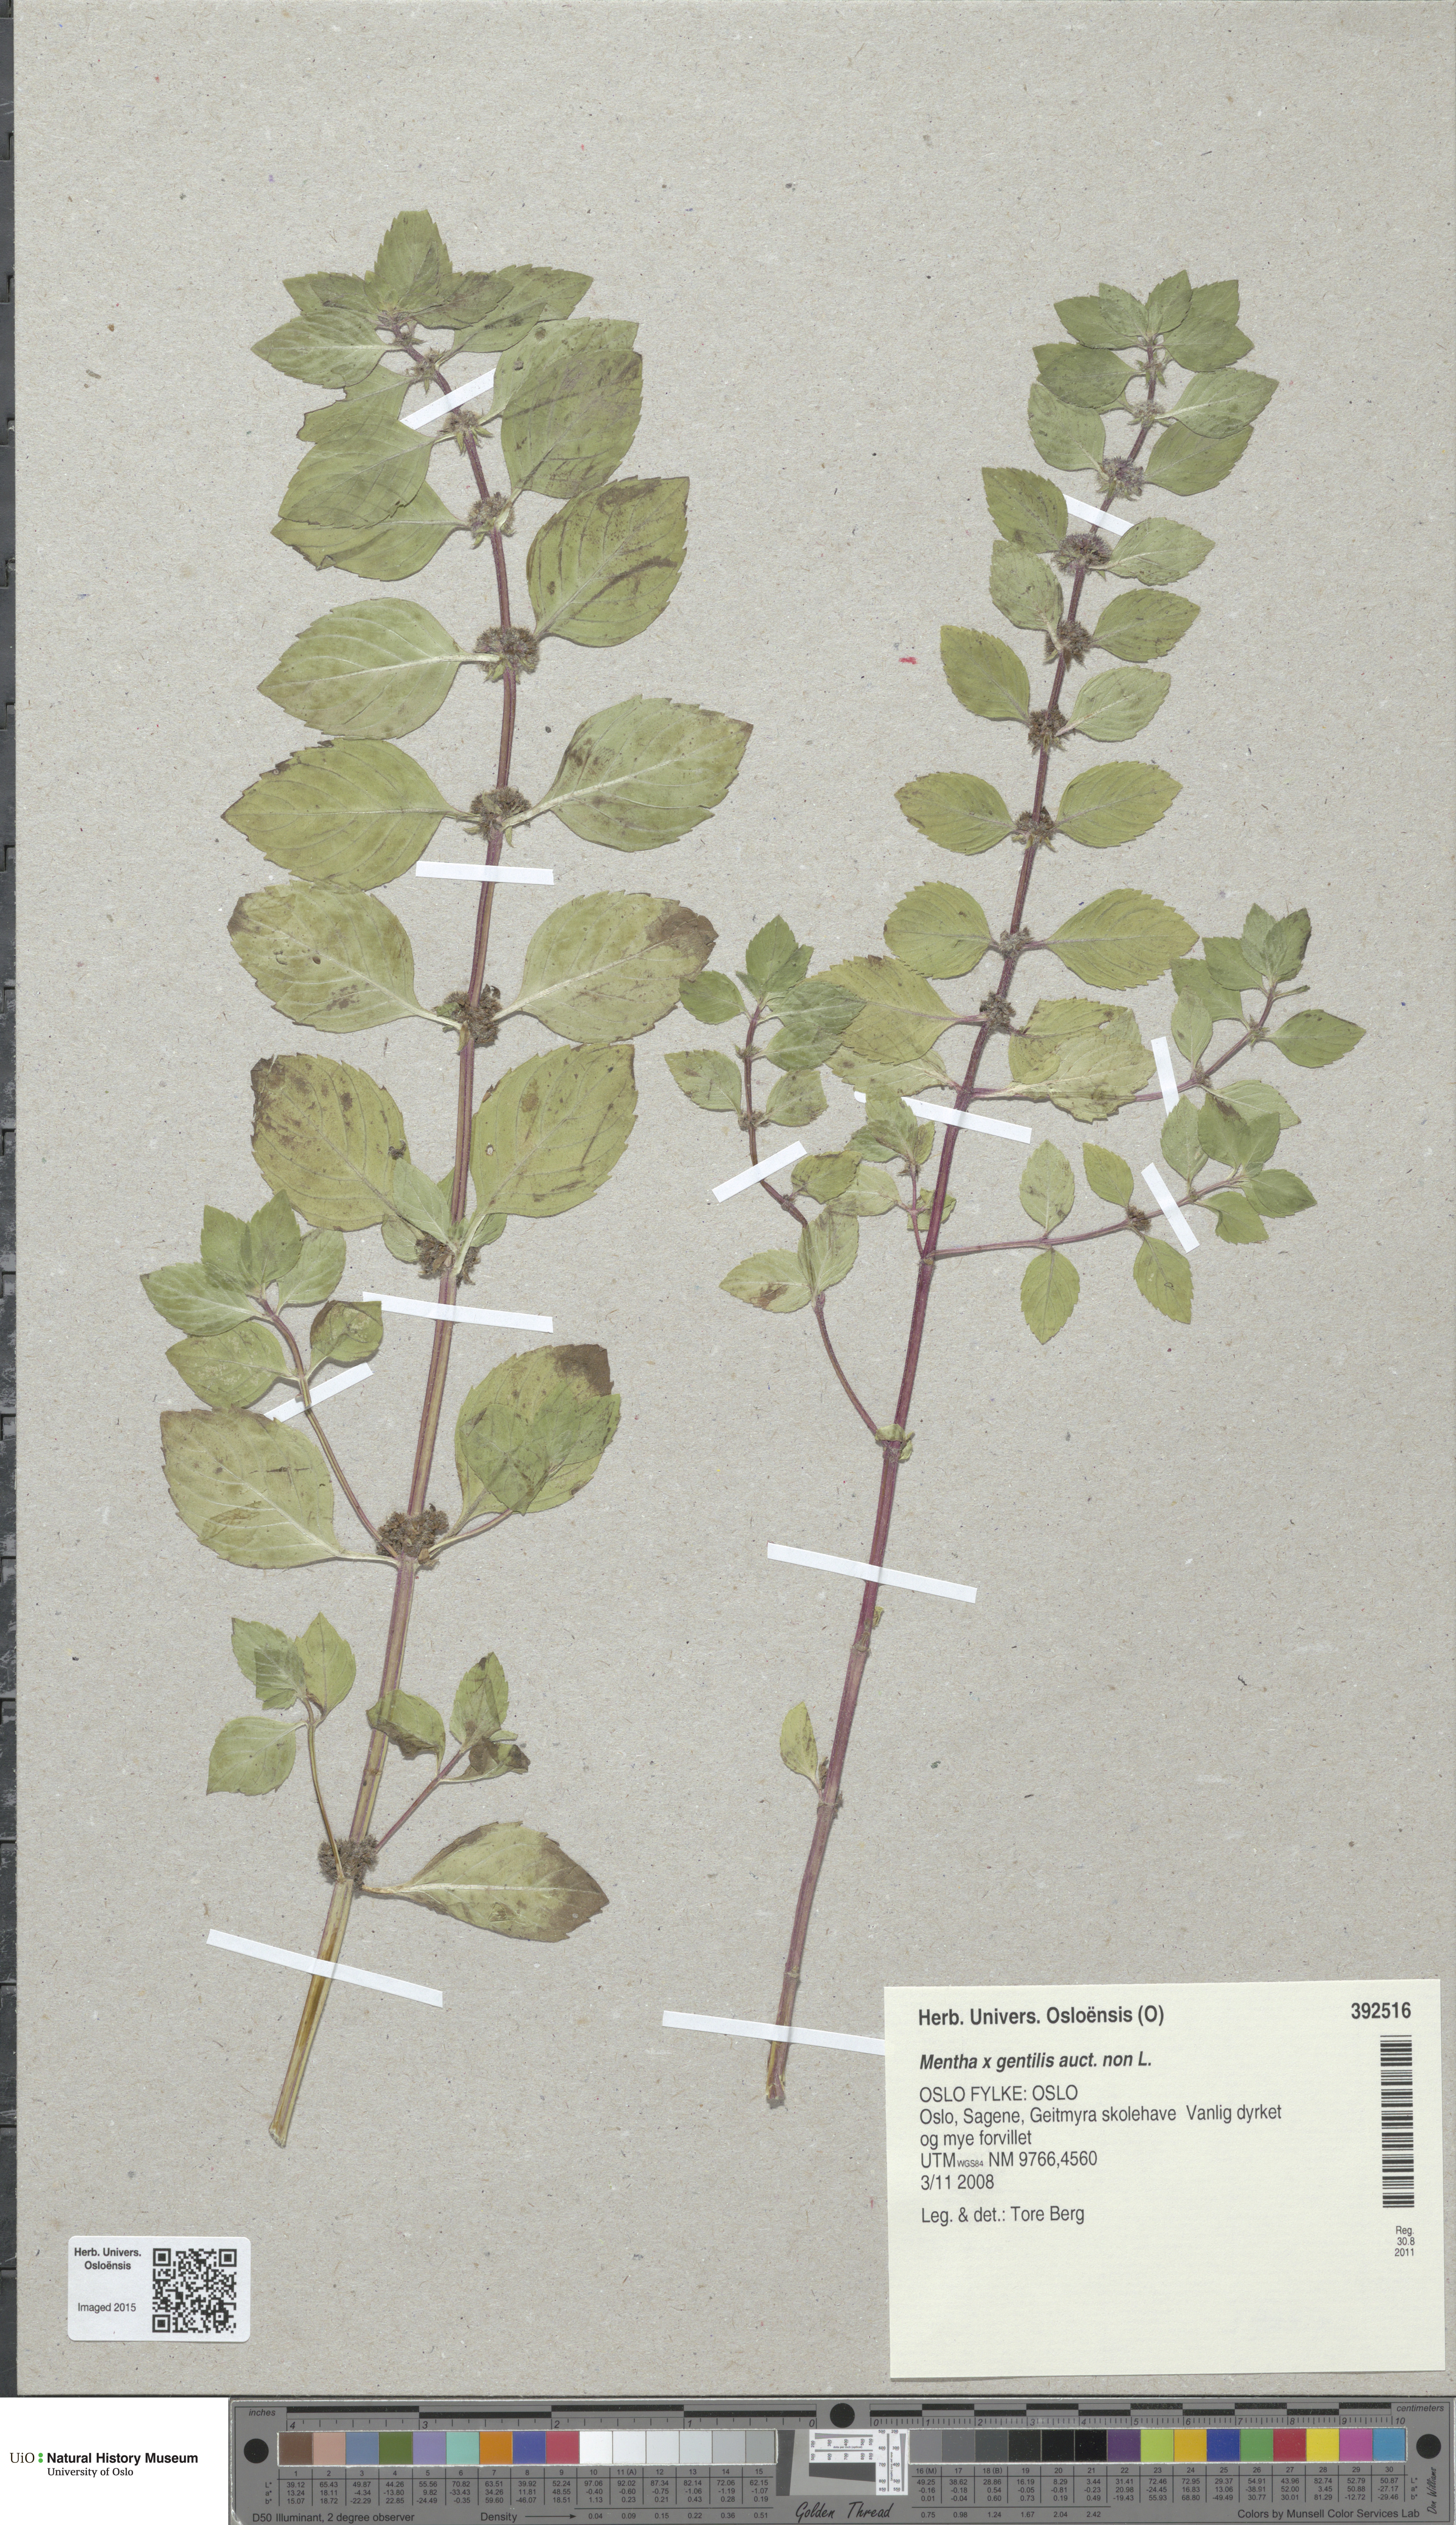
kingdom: Plantae
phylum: Tracheophyta
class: Magnoliopsida
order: Lamiales
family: Lamiaceae
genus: Mentha
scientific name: Mentha arvensis
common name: Corn mint
